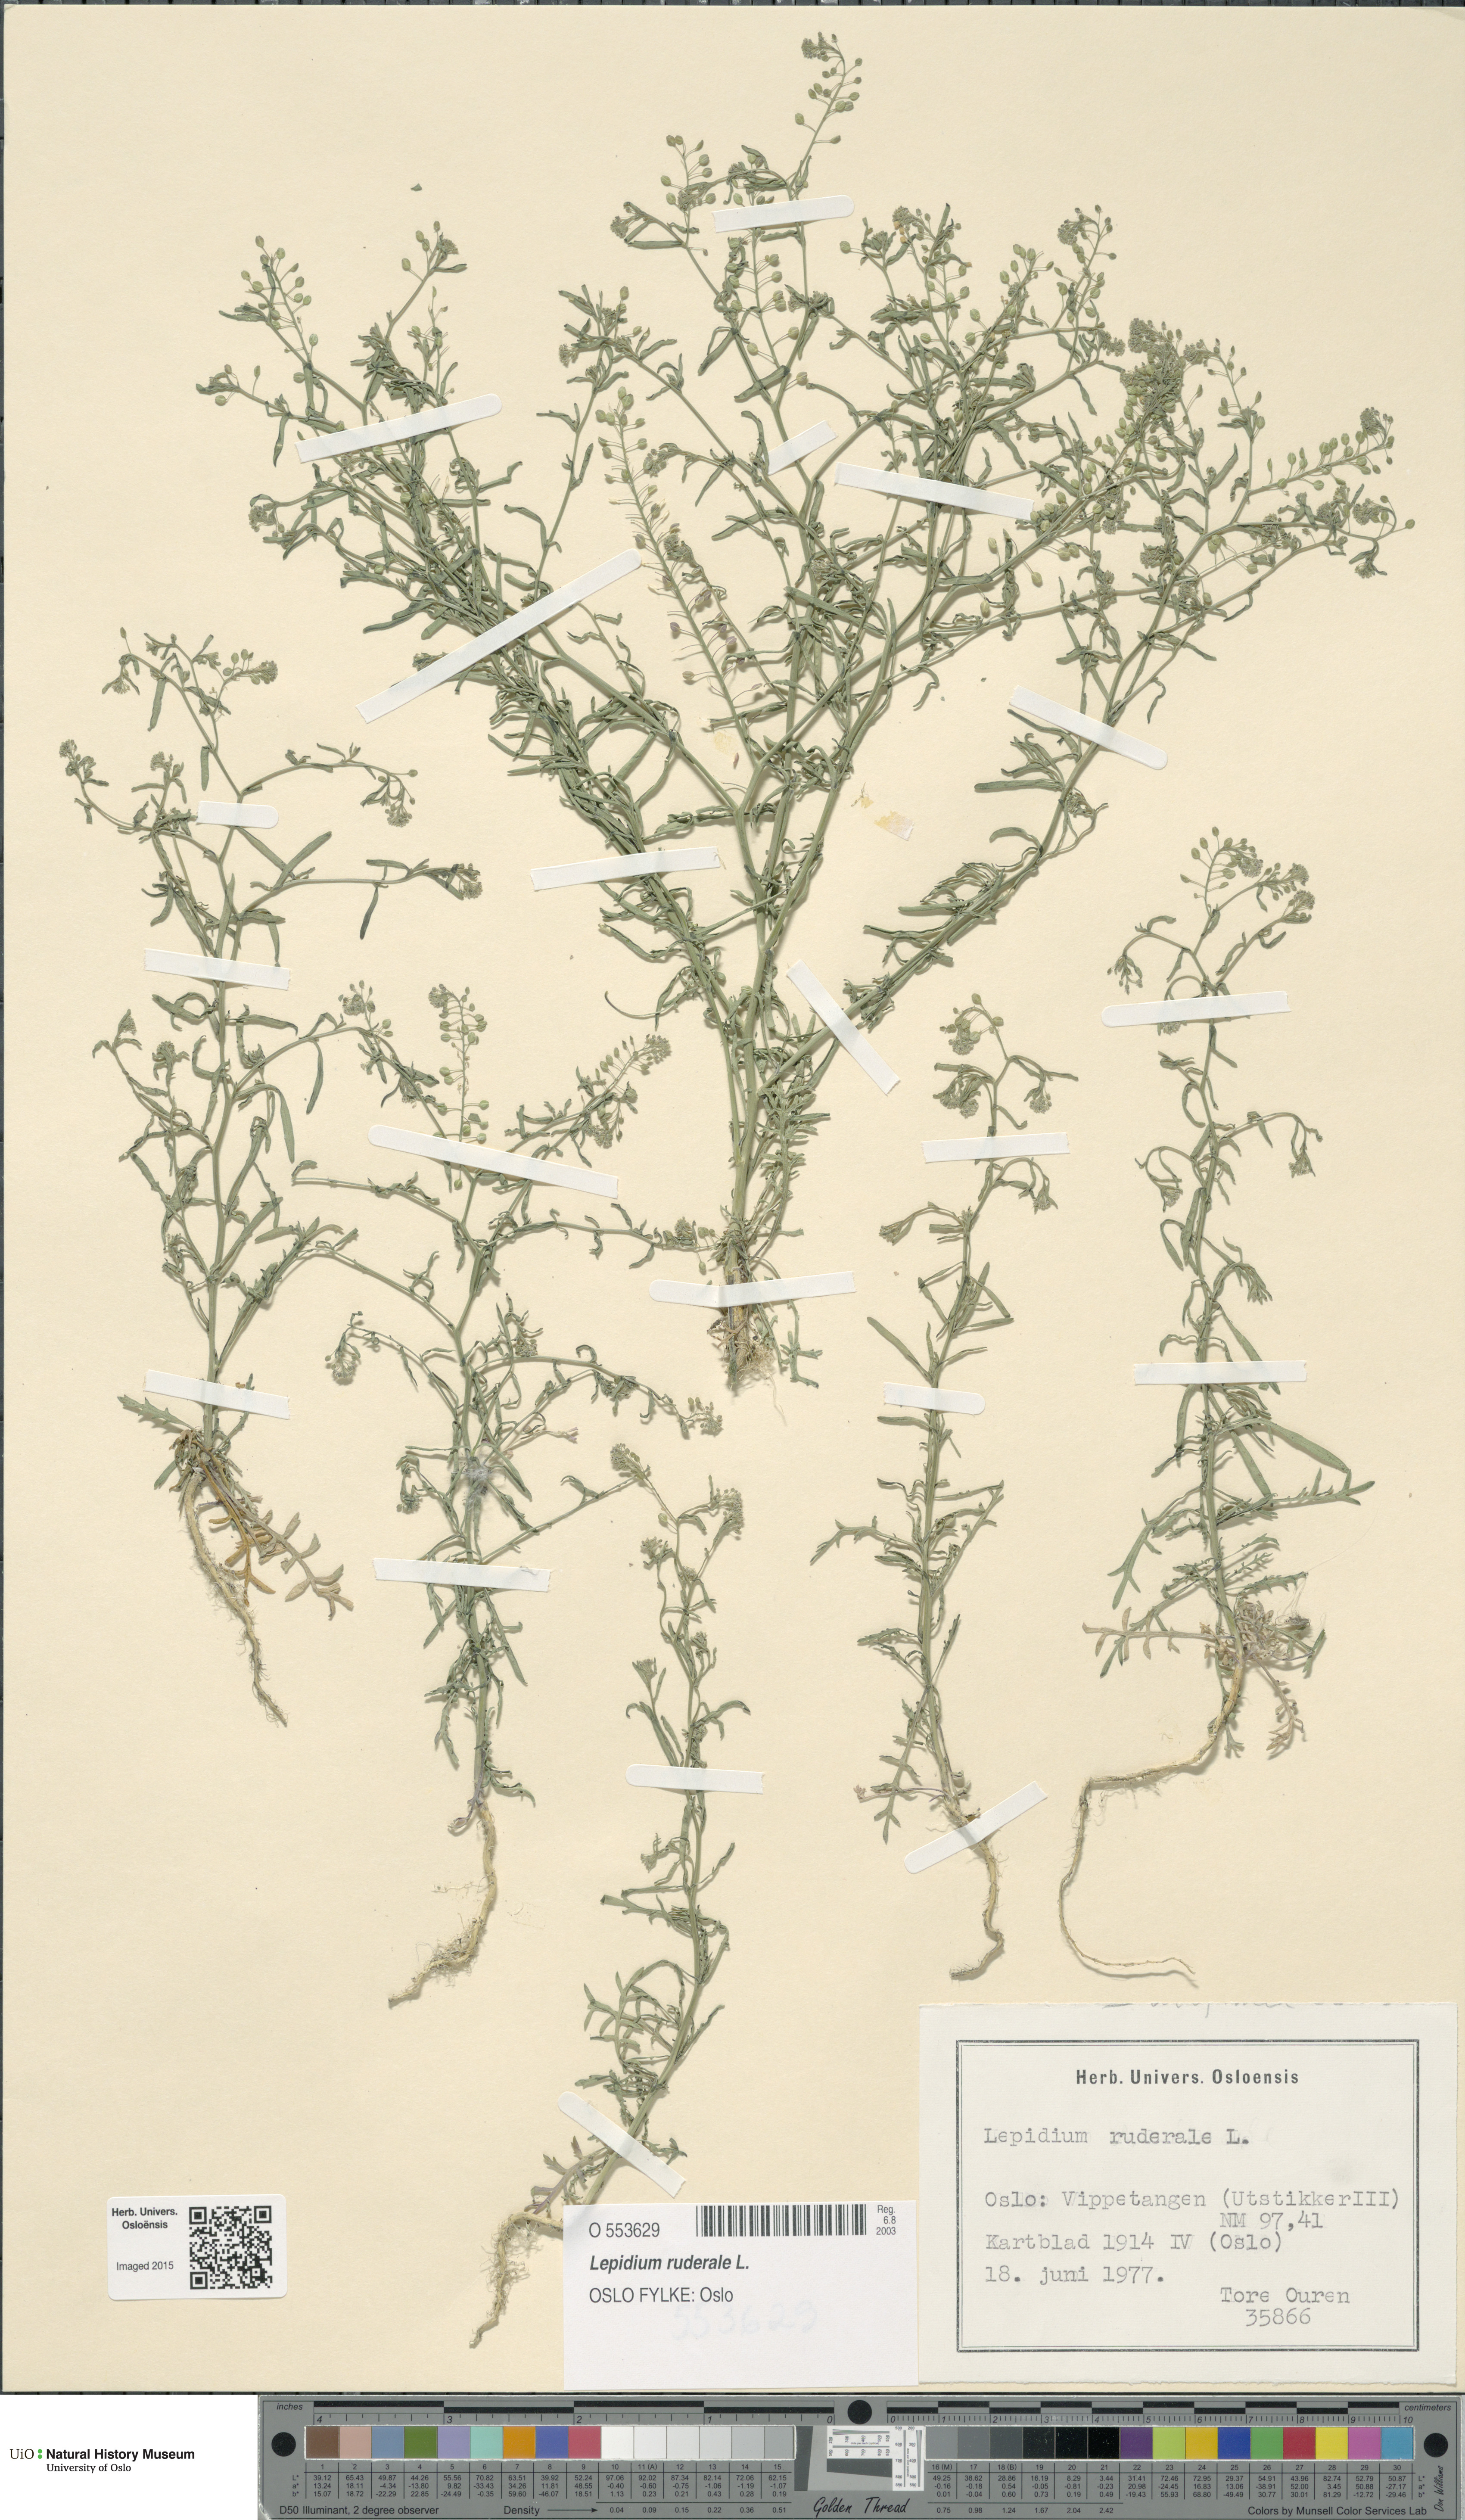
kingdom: Plantae
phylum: Tracheophyta
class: Magnoliopsida
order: Brassicales
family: Brassicaceae
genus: Lepidium
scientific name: Lepidium ruderale
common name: Narrow-leaved pepperwort
